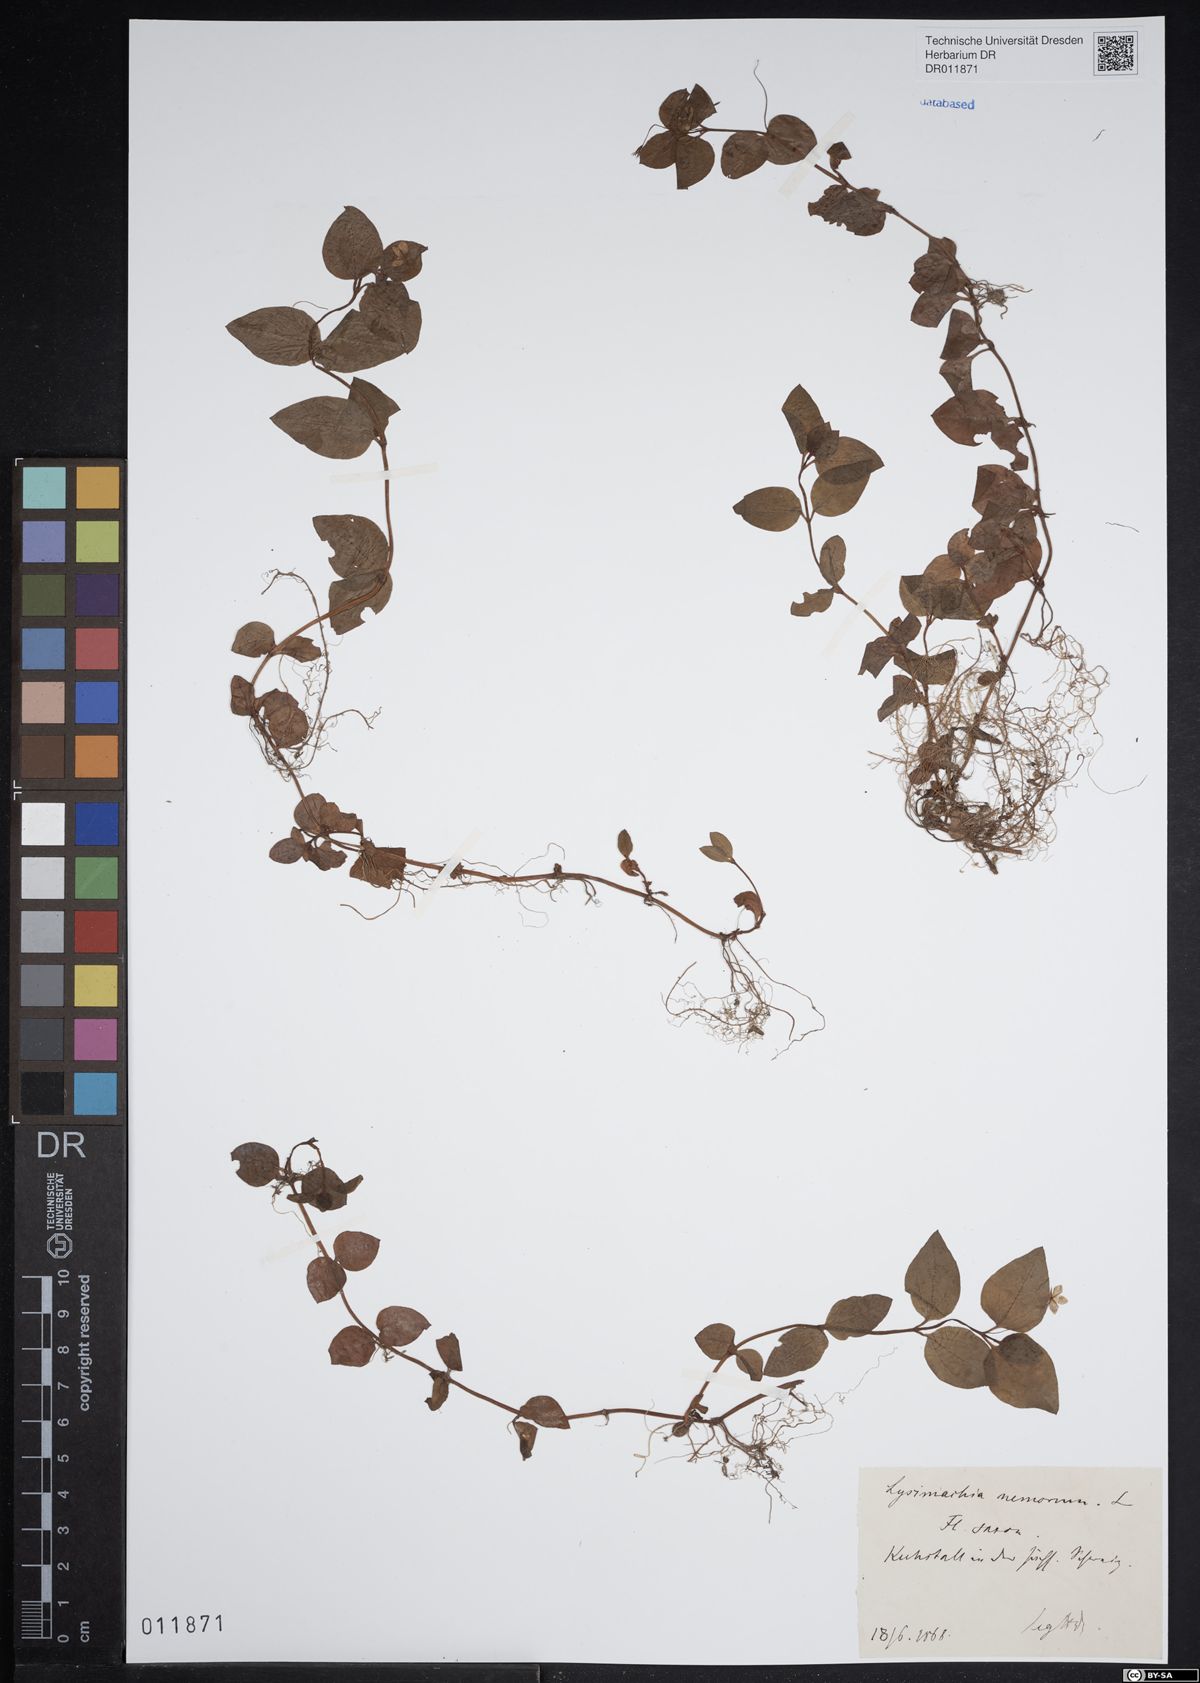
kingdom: Plantae
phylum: Tracheophyta
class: Magnoliopsida
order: Ericales
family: Primulaceae
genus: Lysimachia
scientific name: Lysimachia nemorum
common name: Yellow pimpernel
